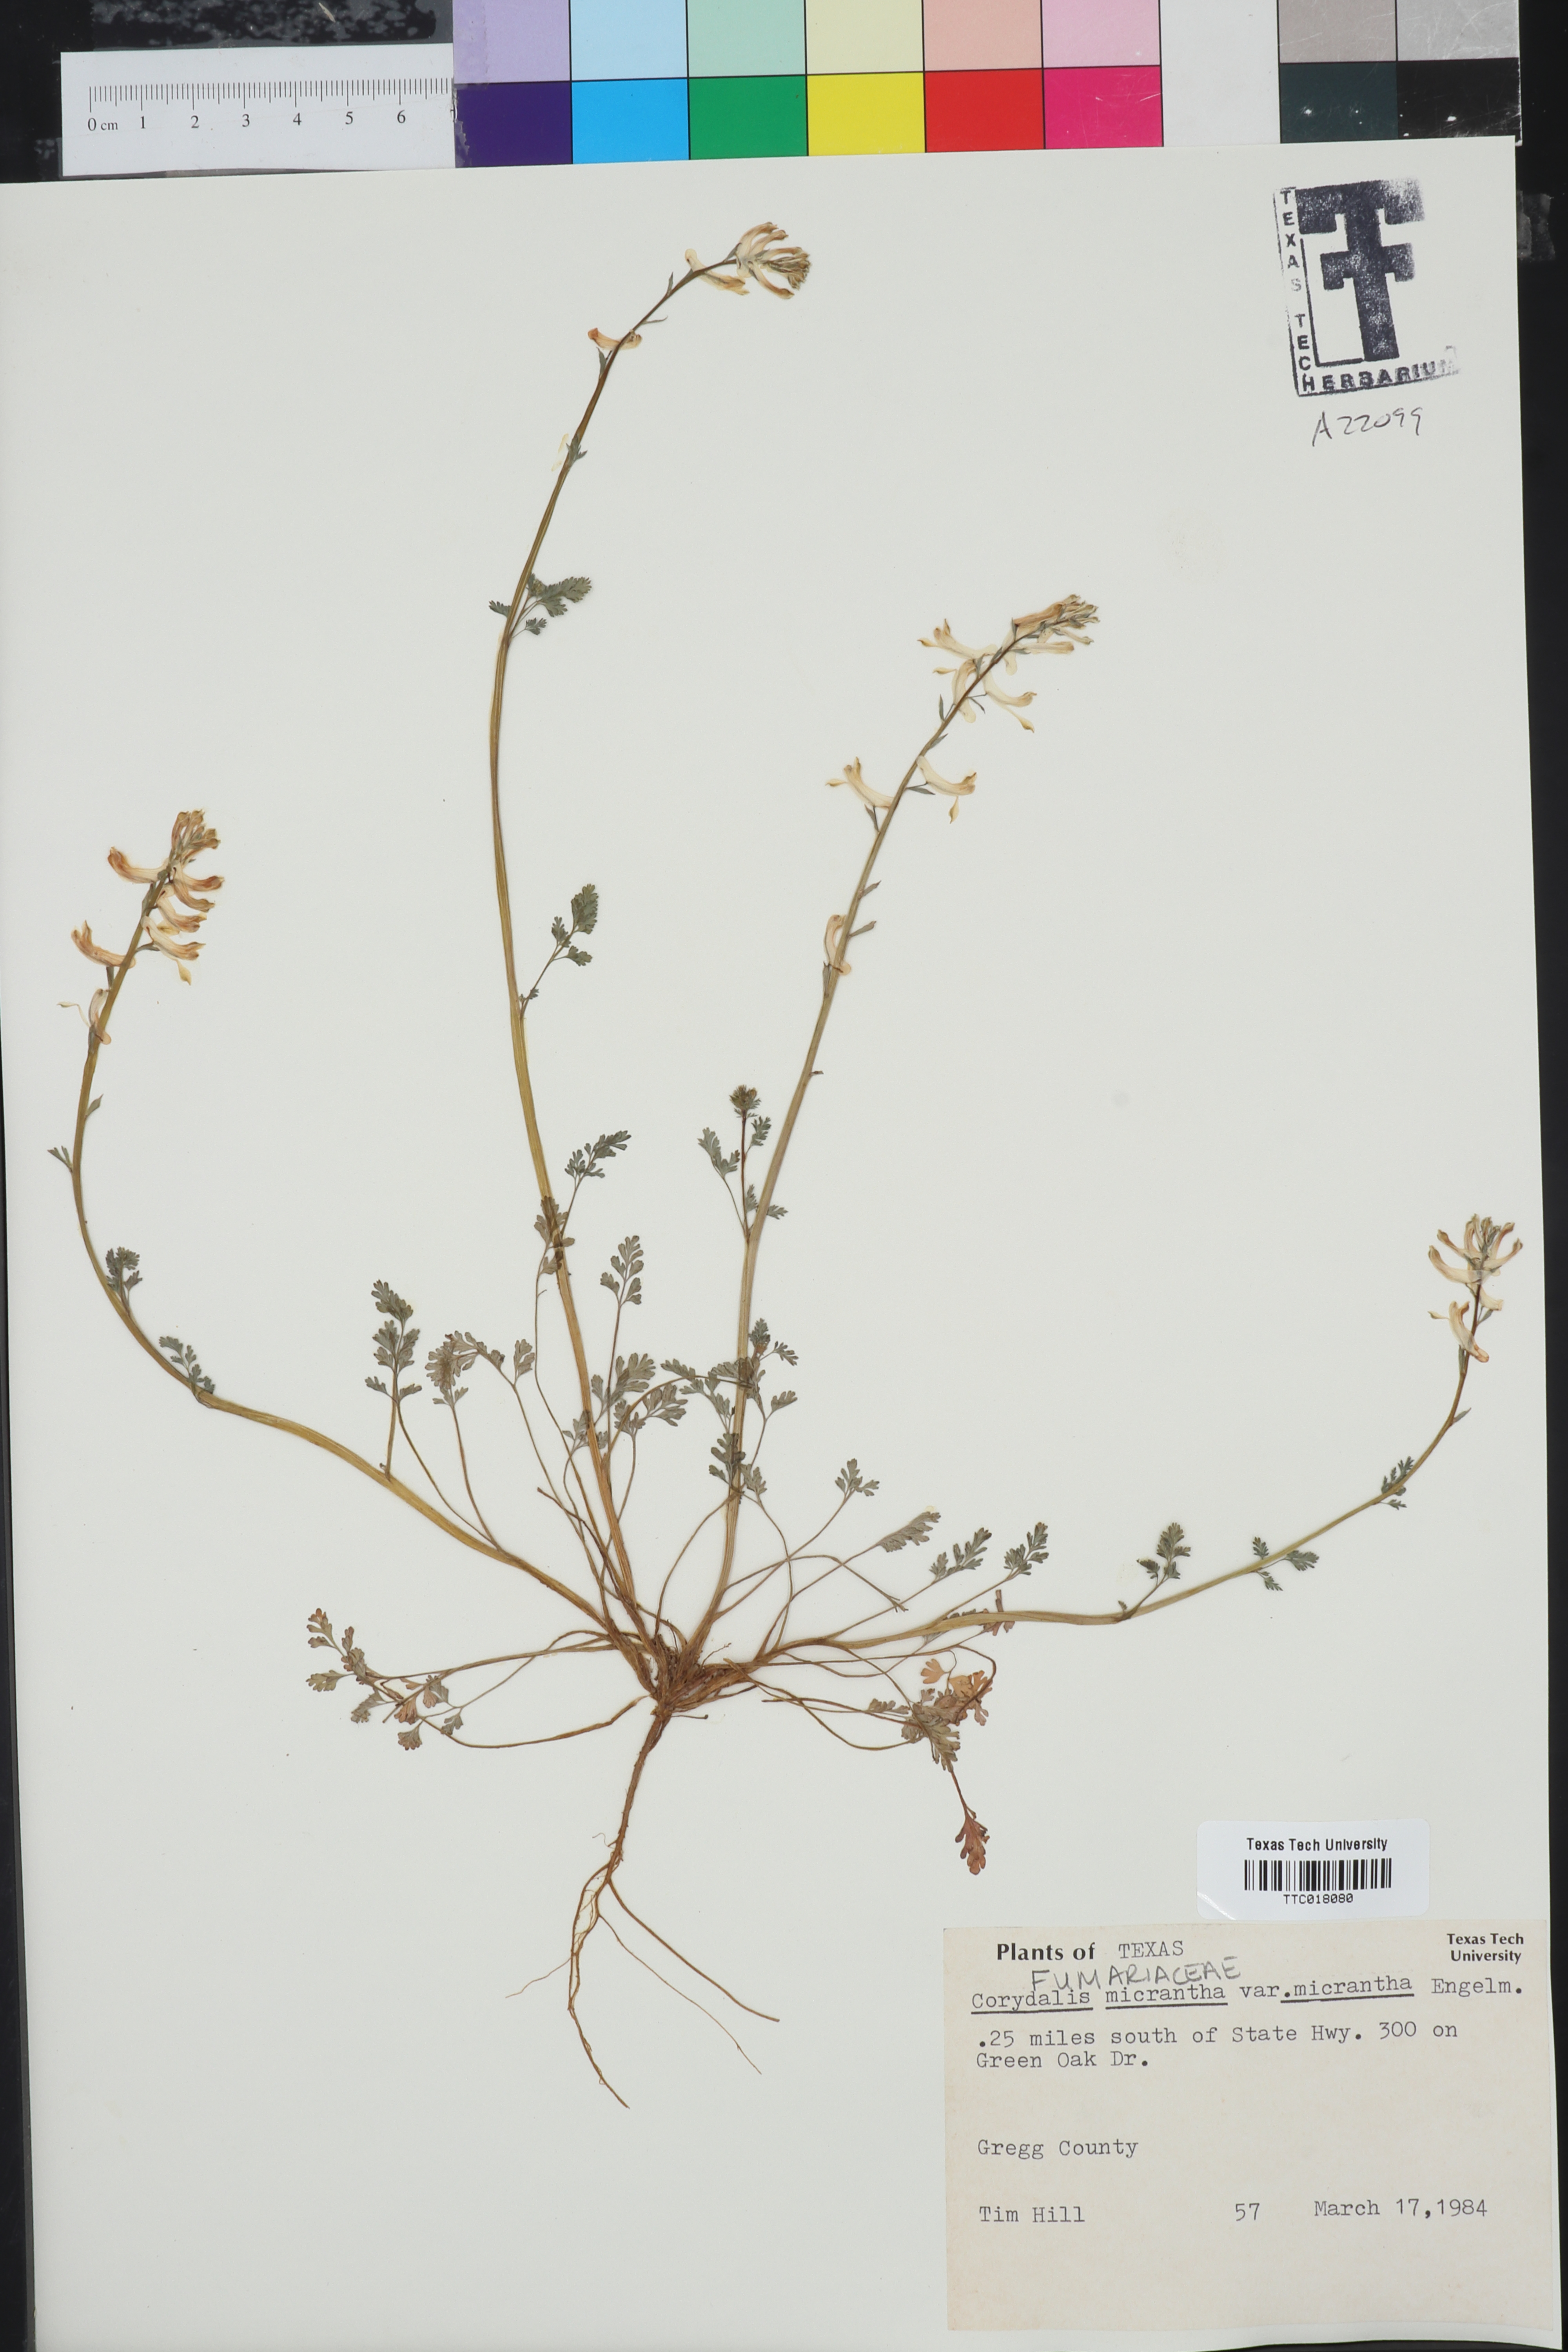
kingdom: Plantae
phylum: Tracheophyta
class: Magnoliopsida
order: Ranunculales
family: Papaveraceae
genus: Corydalis
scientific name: Corydalis micrantha
